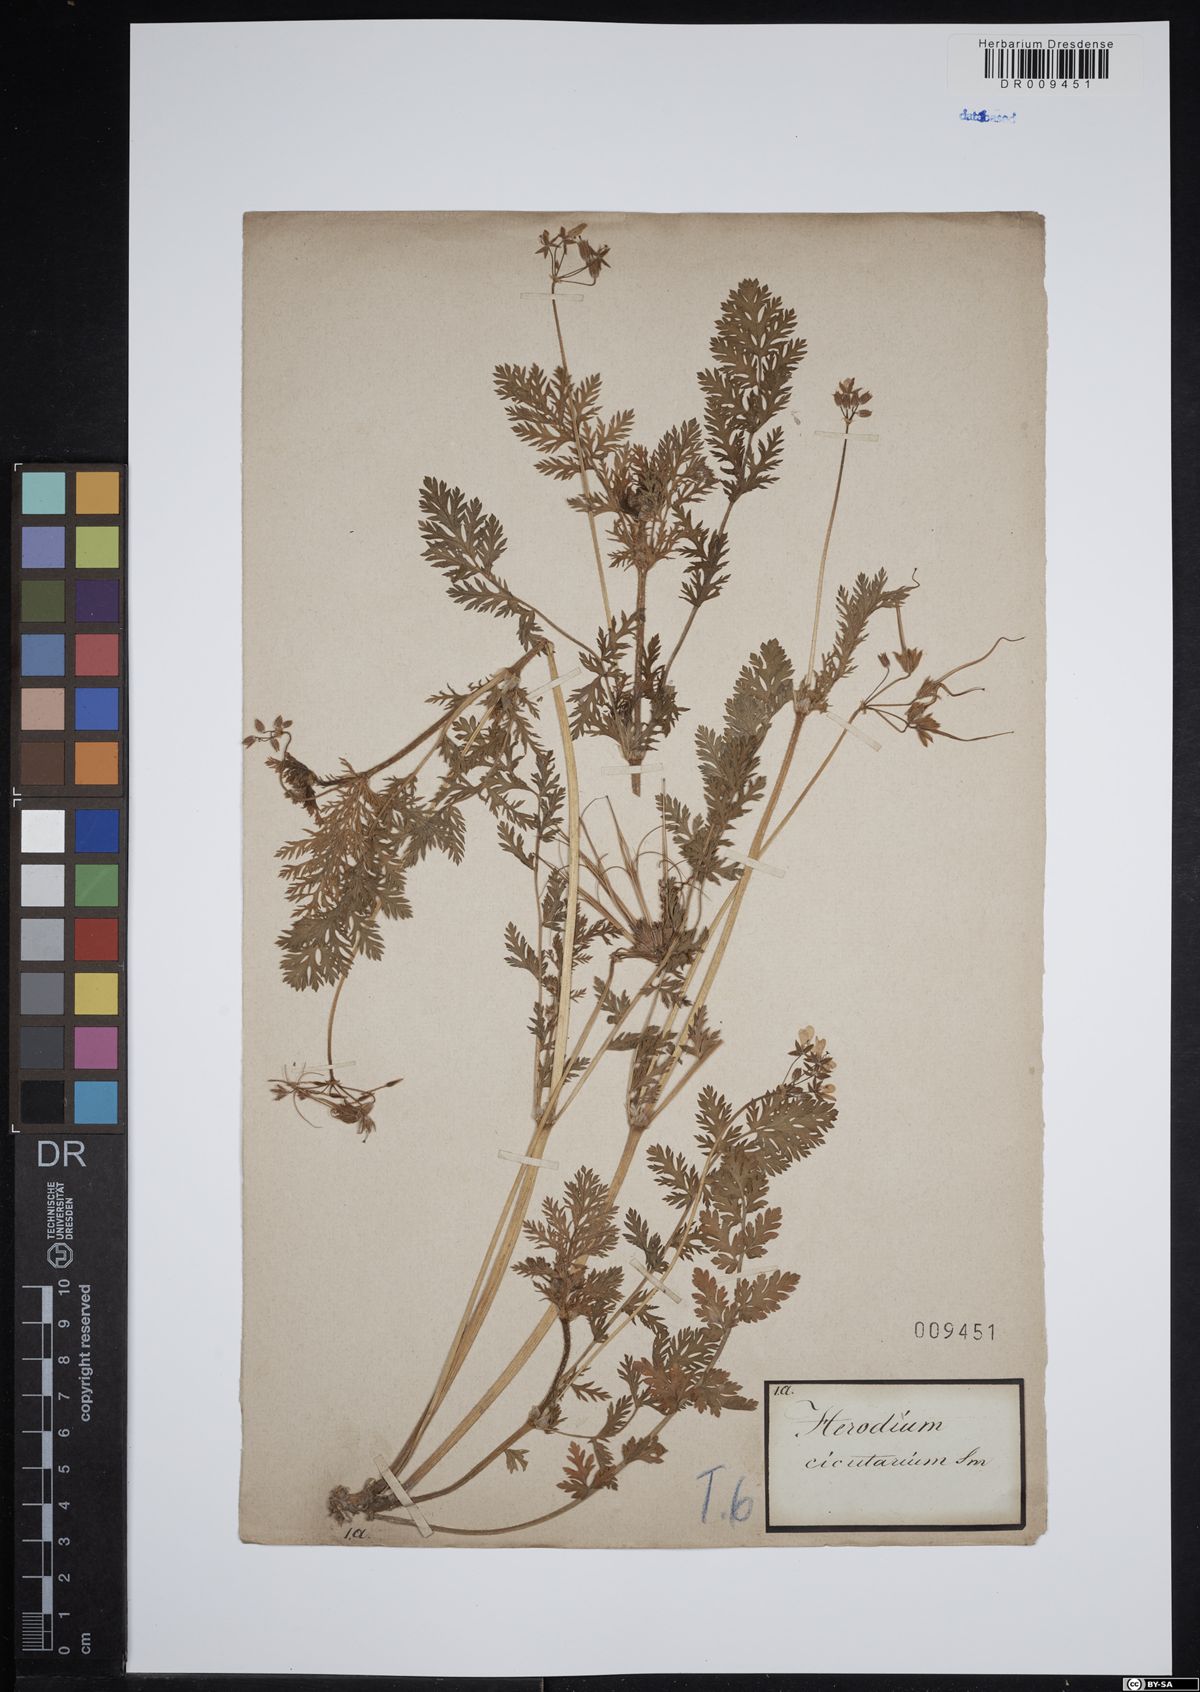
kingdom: Plantae
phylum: Tracheophyta
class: Magnoliopsida
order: Geraniales
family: Geraniaceae
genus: Erodium
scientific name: Erodium cicutarium
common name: Common stork's-bill
